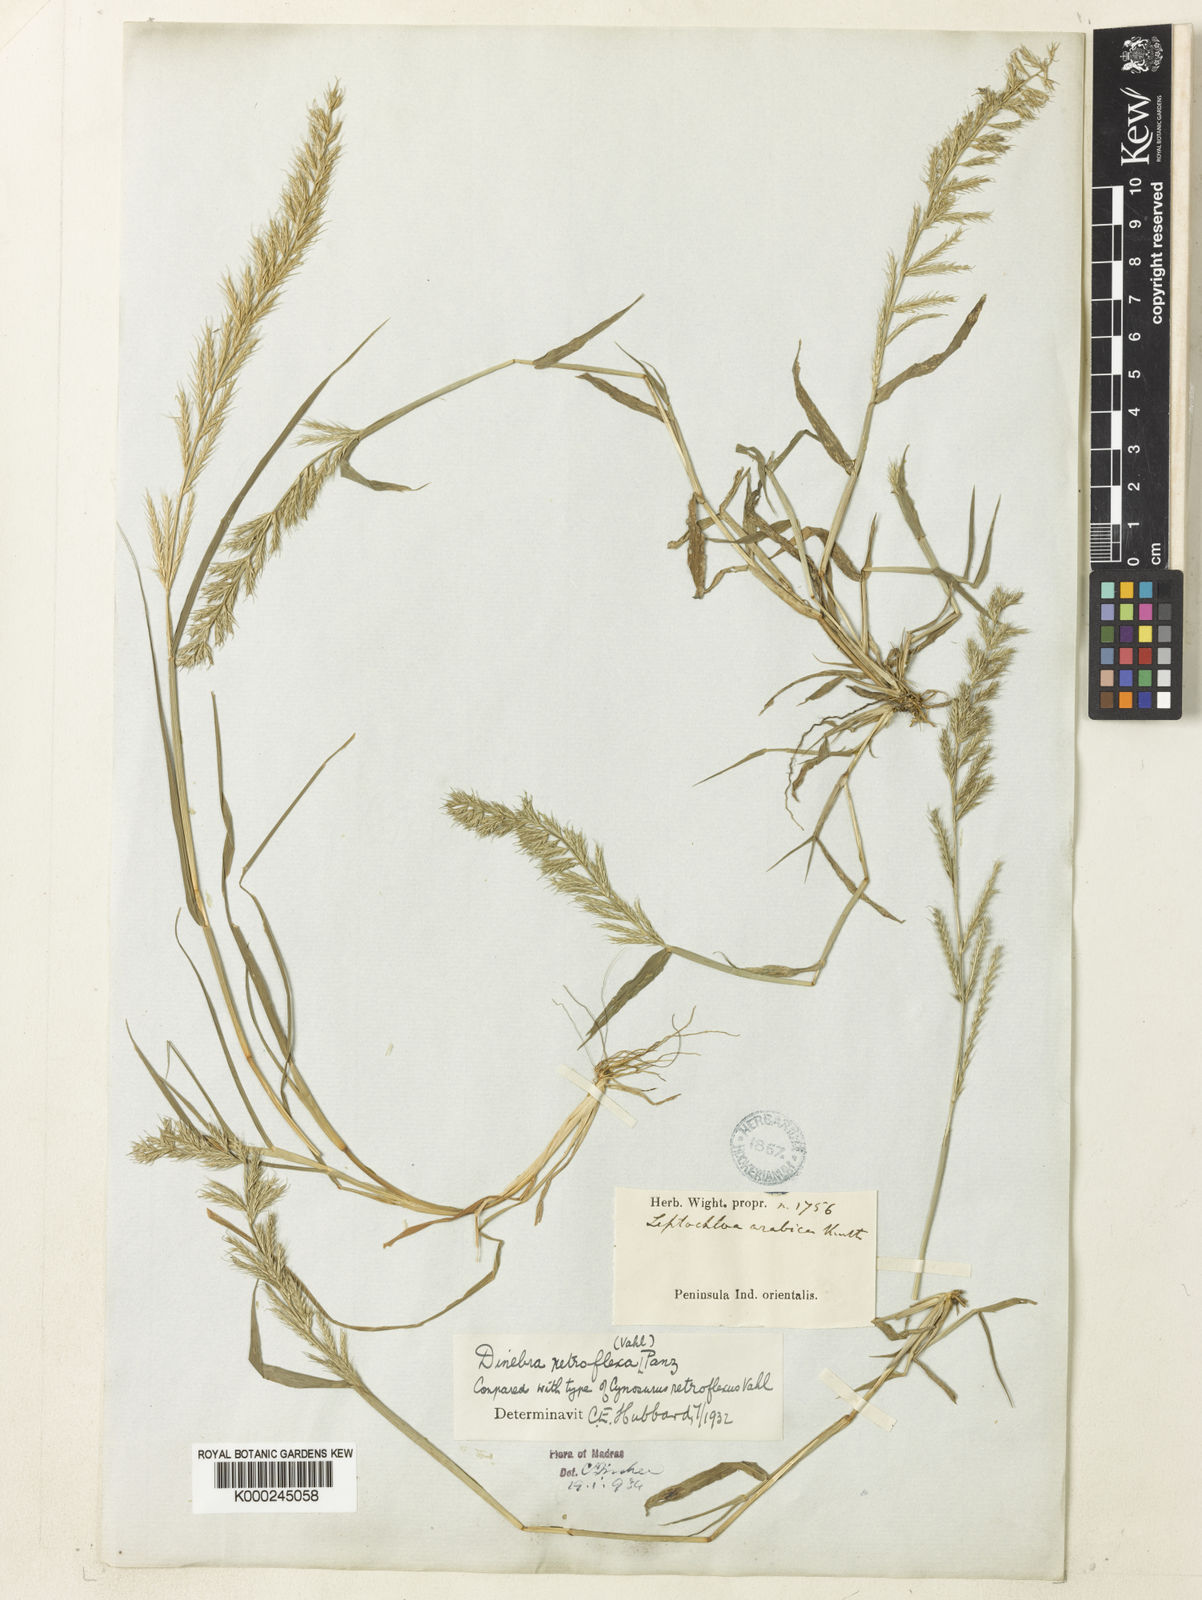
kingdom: Plantae
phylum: Tracheophyta
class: Liliopsida
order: Poales
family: Poaceae
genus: Dinebra
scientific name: Dinebra retroflexa
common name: Viper grass
